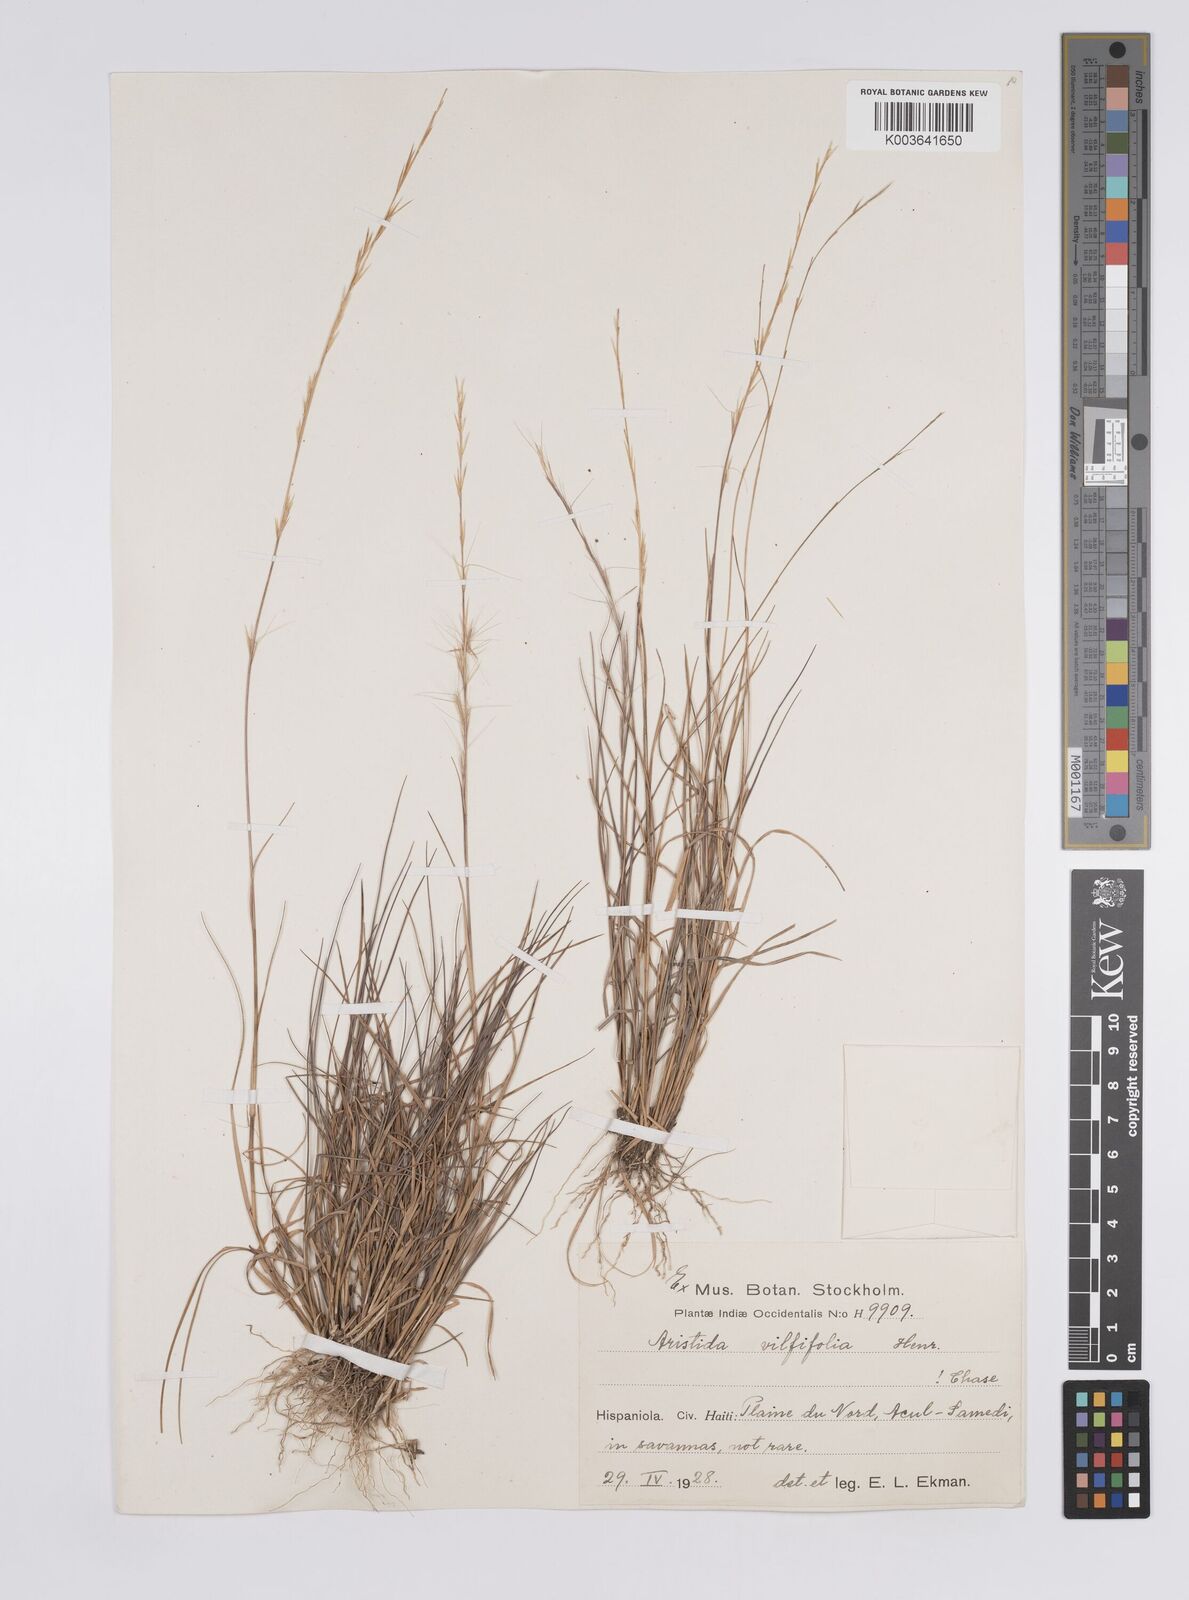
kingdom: Plantae
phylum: Tracheophyta
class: Liliopsida
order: Poales
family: Poaceae
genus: Aristida
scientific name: Aristida vilfifolia
